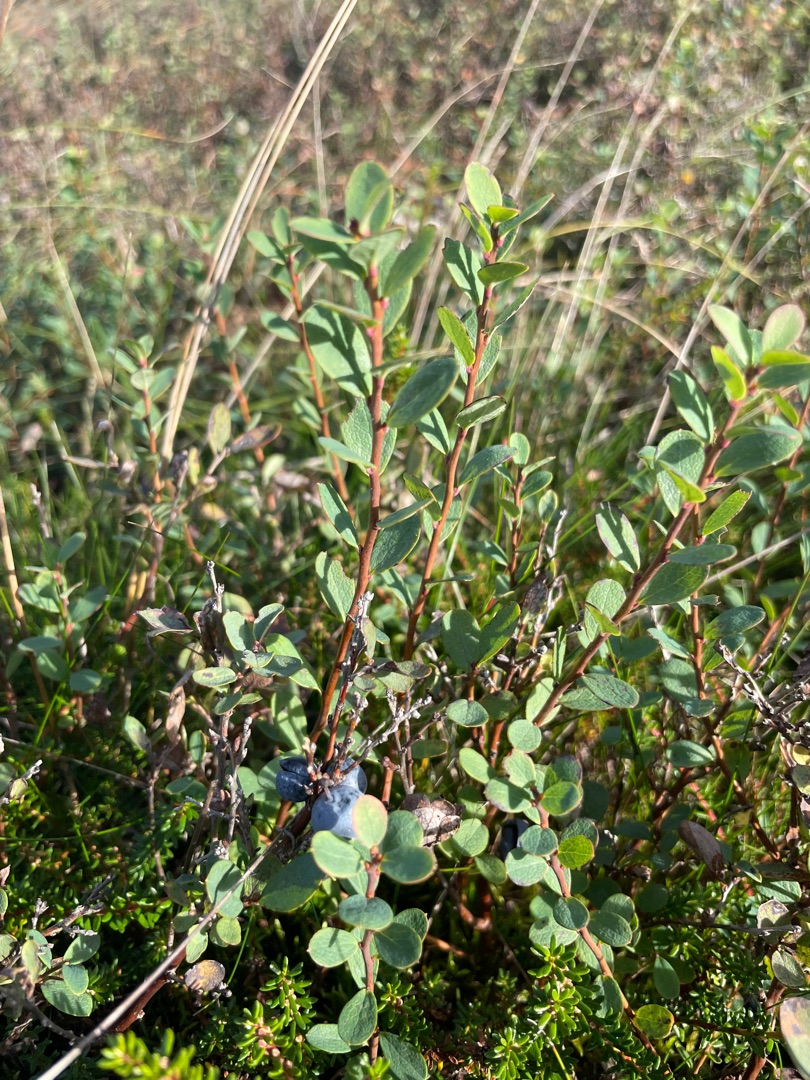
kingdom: Plantae
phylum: Tracheophyta
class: Magnoliopsida
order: Ericales
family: Ericaceae
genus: Vaccinium
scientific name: Vaccinium uliginosum
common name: Mose-bølle
